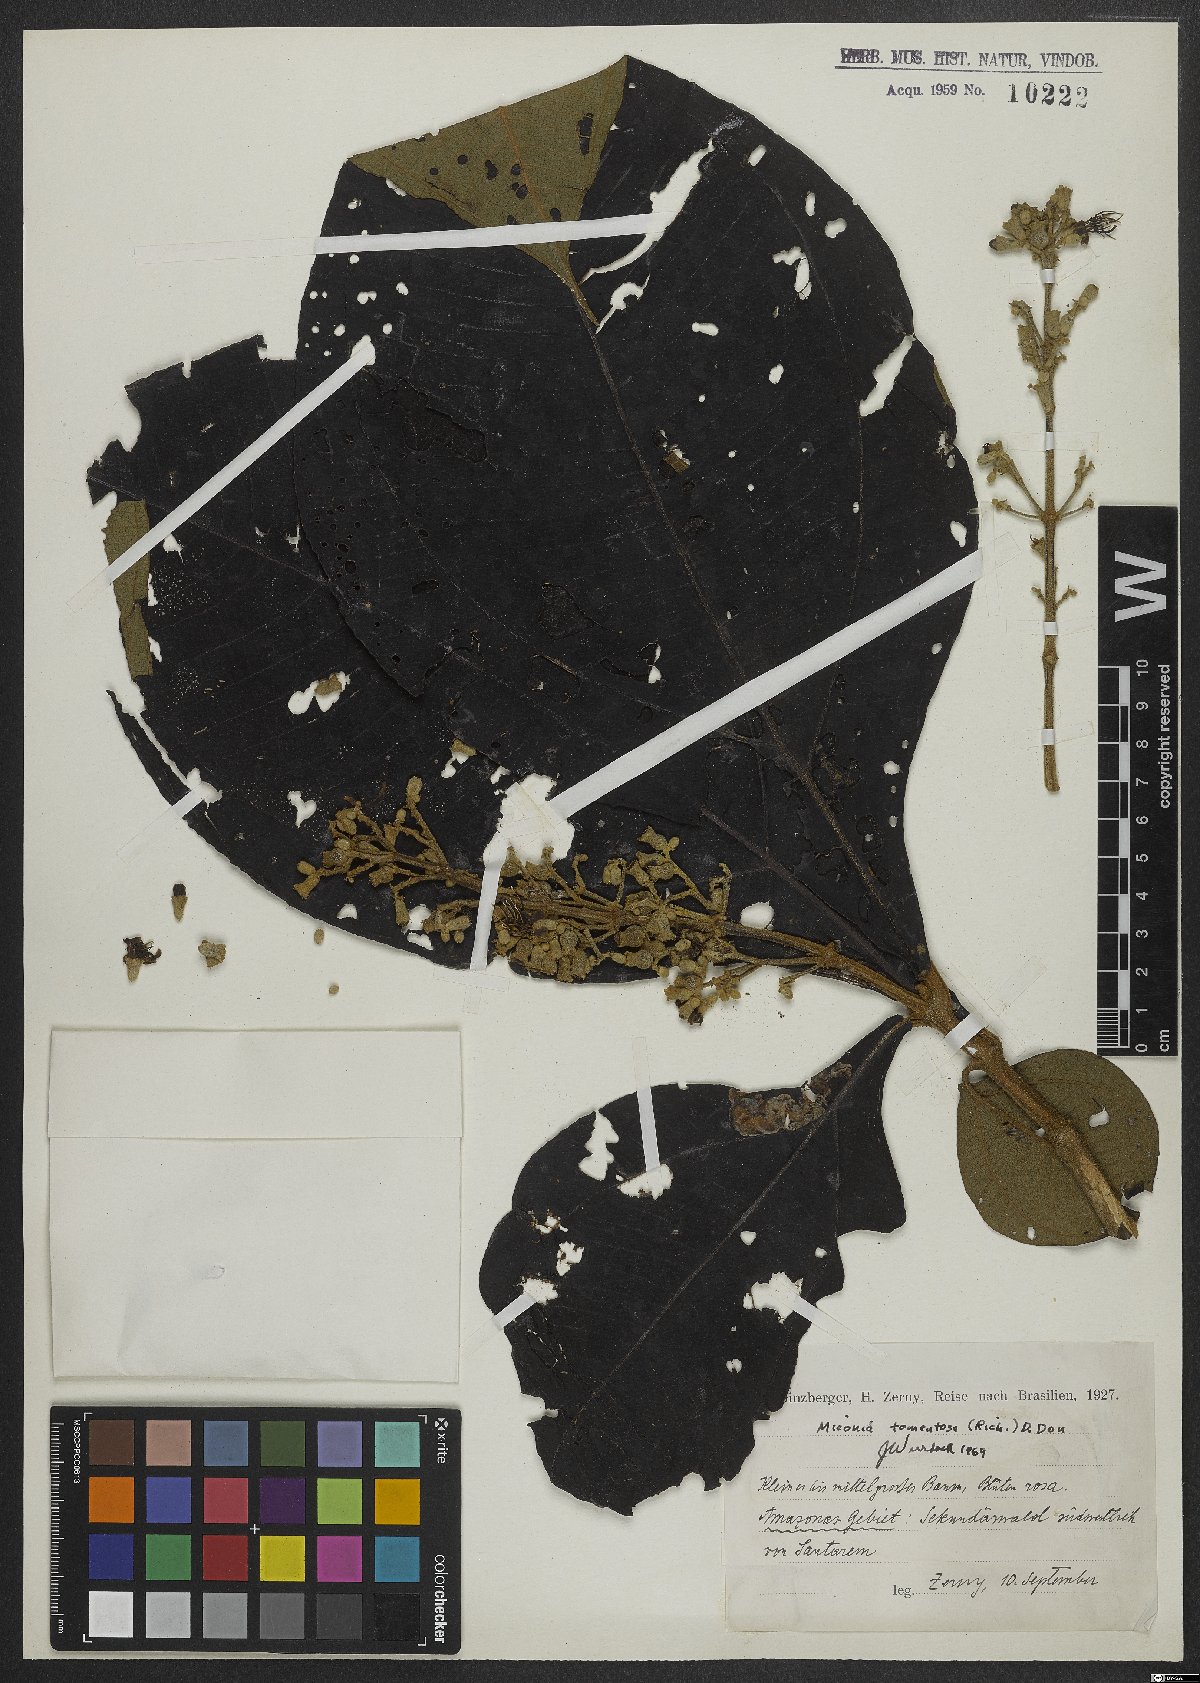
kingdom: Plantae
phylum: Tracheophyta
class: Magnoliopsida
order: Myrtales
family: Melastomataceae
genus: Miconia
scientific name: Miconia tomentosa
